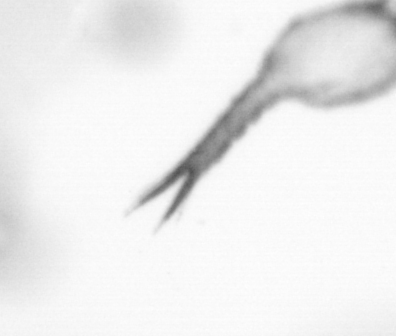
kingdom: Animalia
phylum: Arthropoda
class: Copepoda
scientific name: Copepoda
